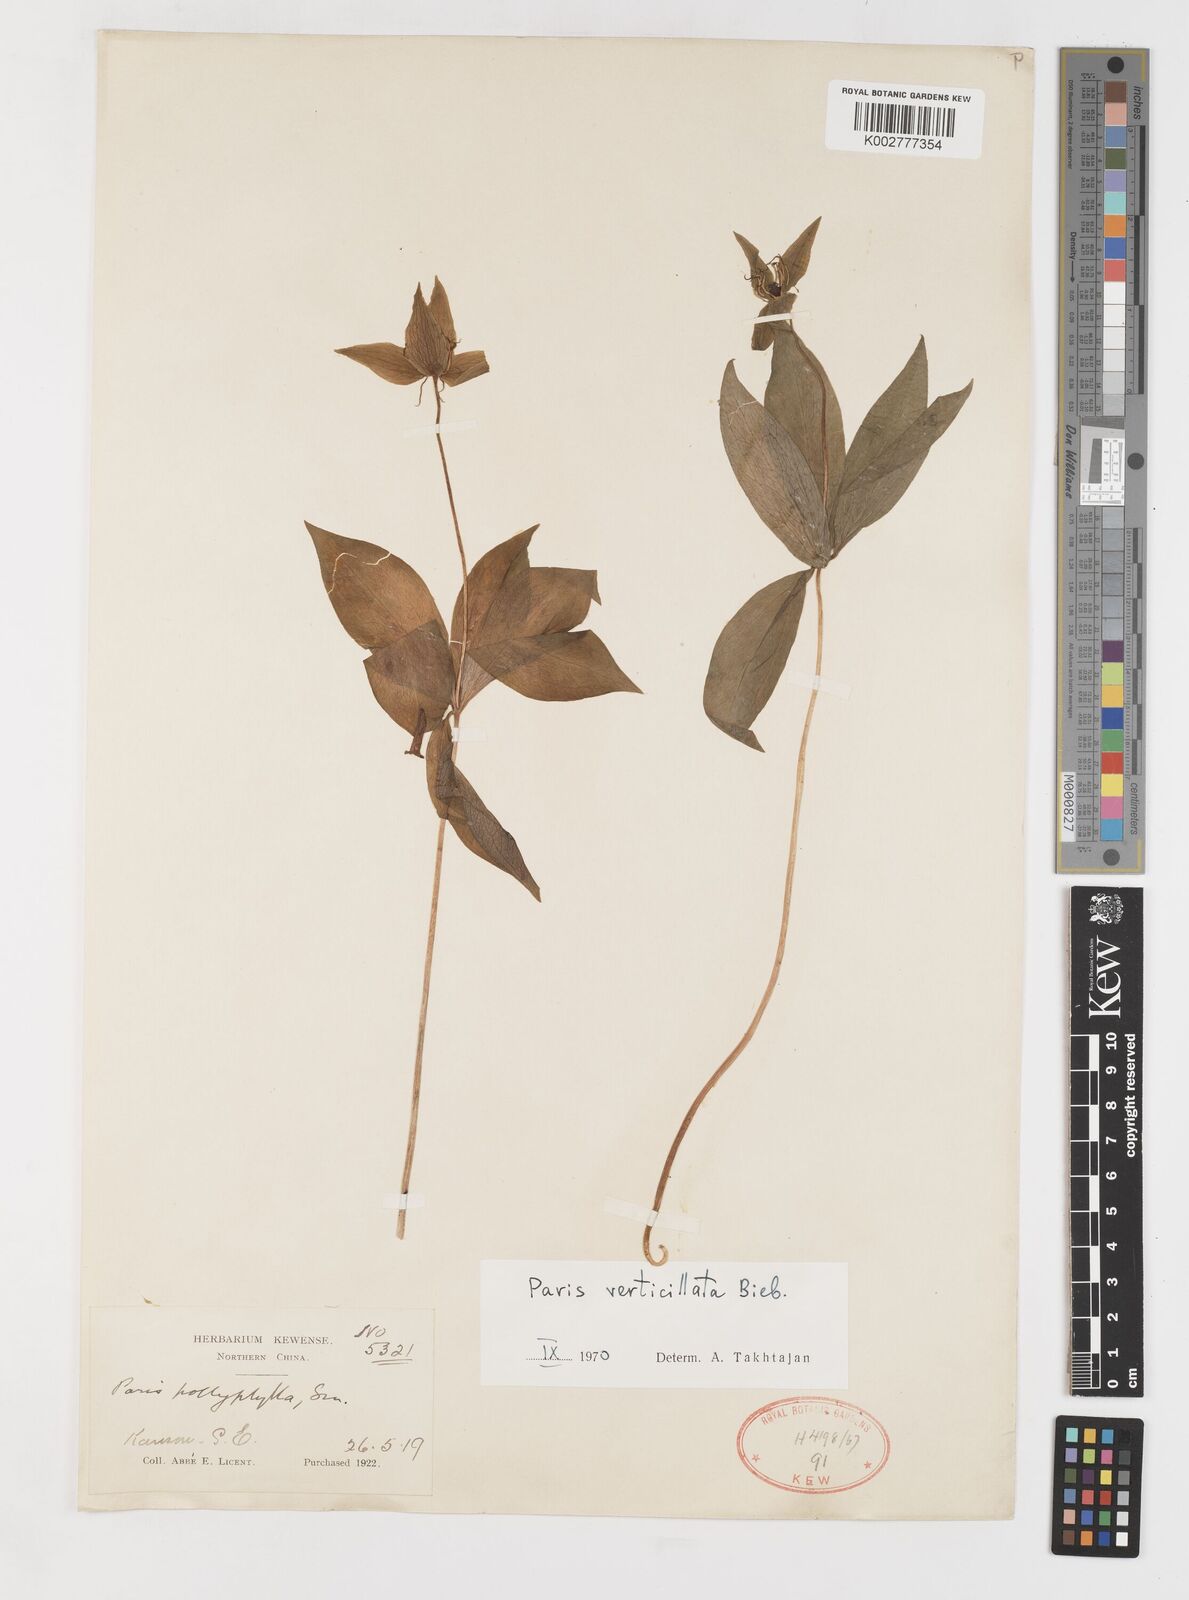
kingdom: Plantae
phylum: Tracheophyta
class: Liliopsida
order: Liliales
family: Melanthiaceae
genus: Paris
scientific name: Paris verticillata
